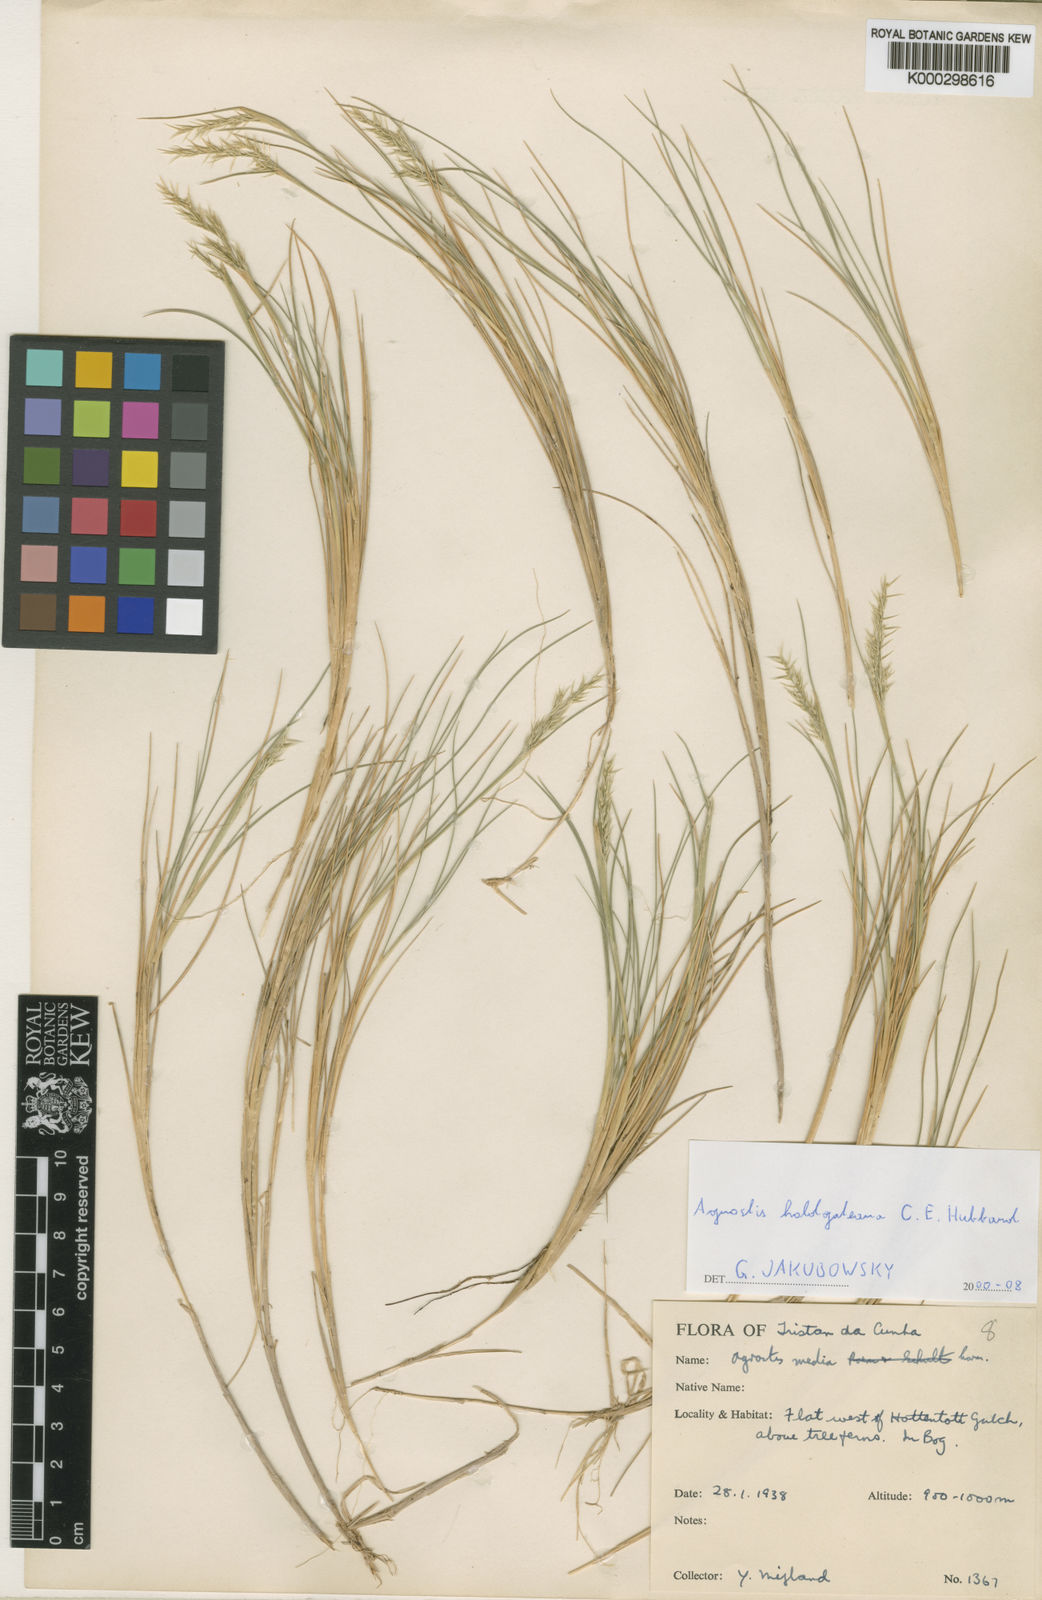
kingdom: Plantae
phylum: Tracheophyta
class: Liliopsida
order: Poales
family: Poaceae
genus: Agrostis
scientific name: Agrostis holgateana
